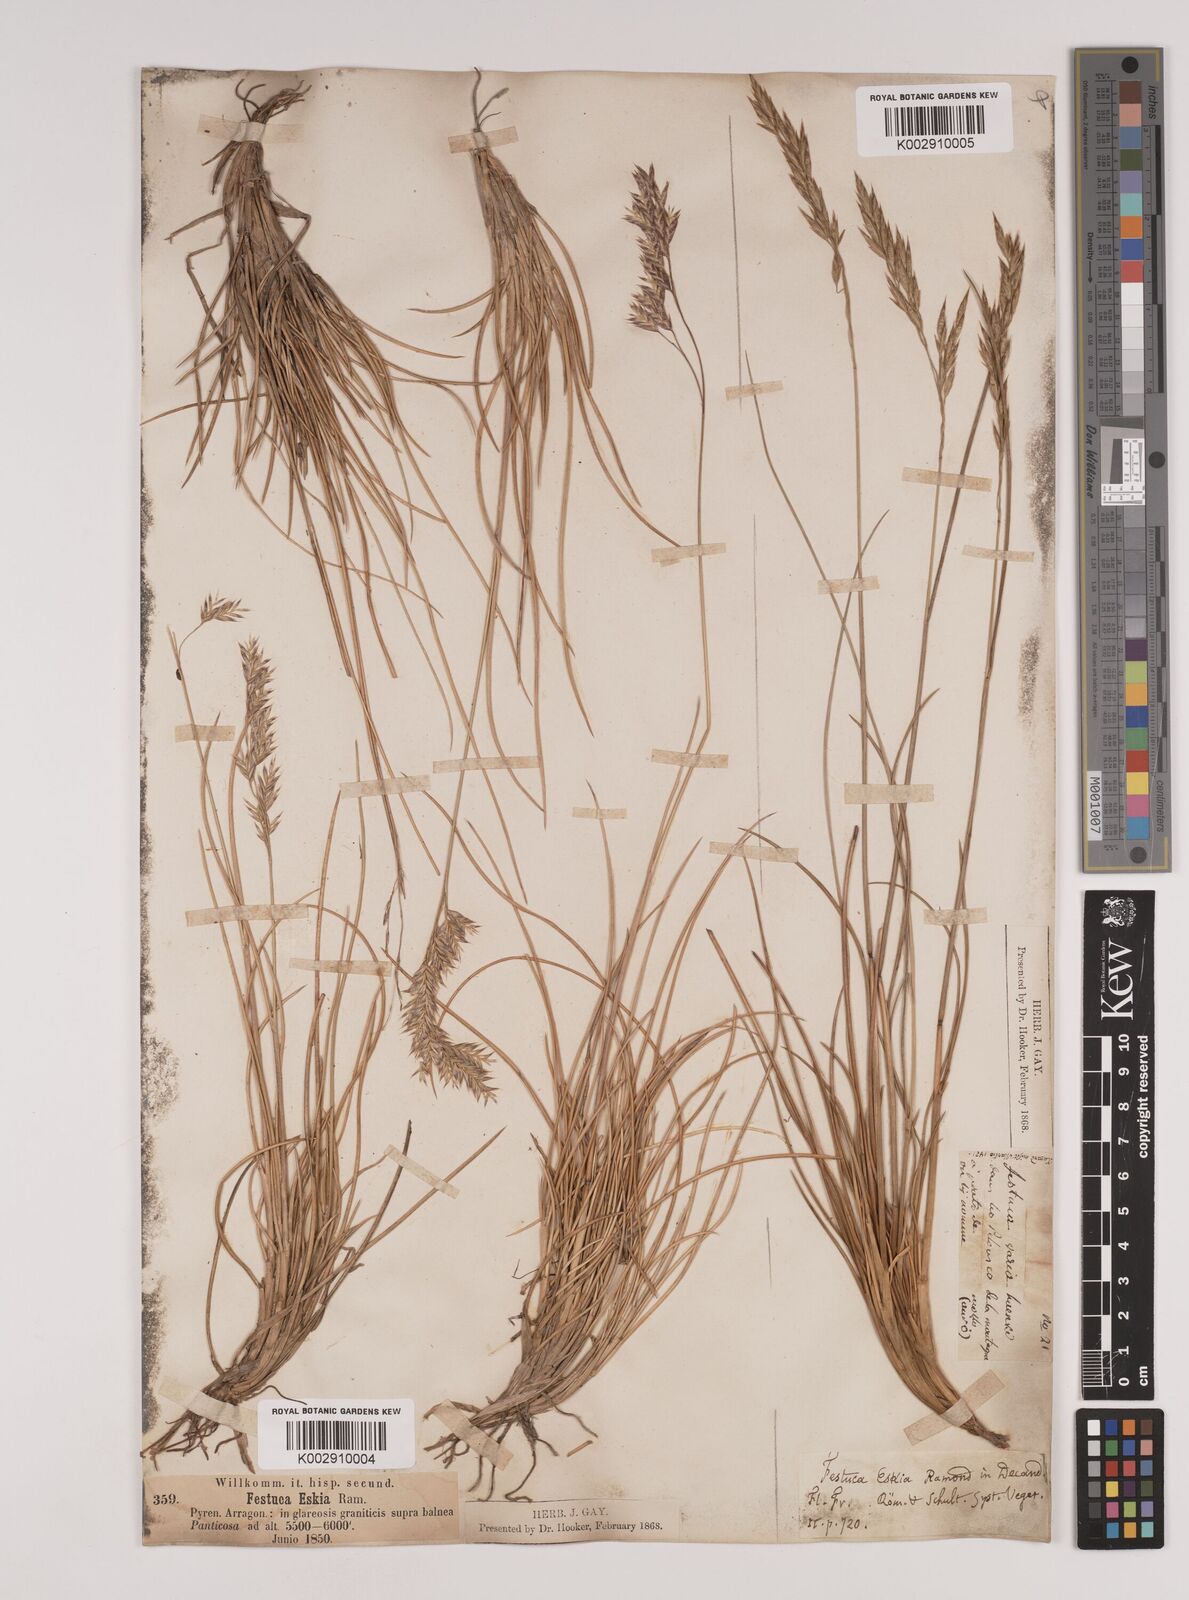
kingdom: Plantae
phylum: Tracheophyta
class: Liliopsida
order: Poales
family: Poaceae
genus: Festuca
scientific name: Festuca eskia
